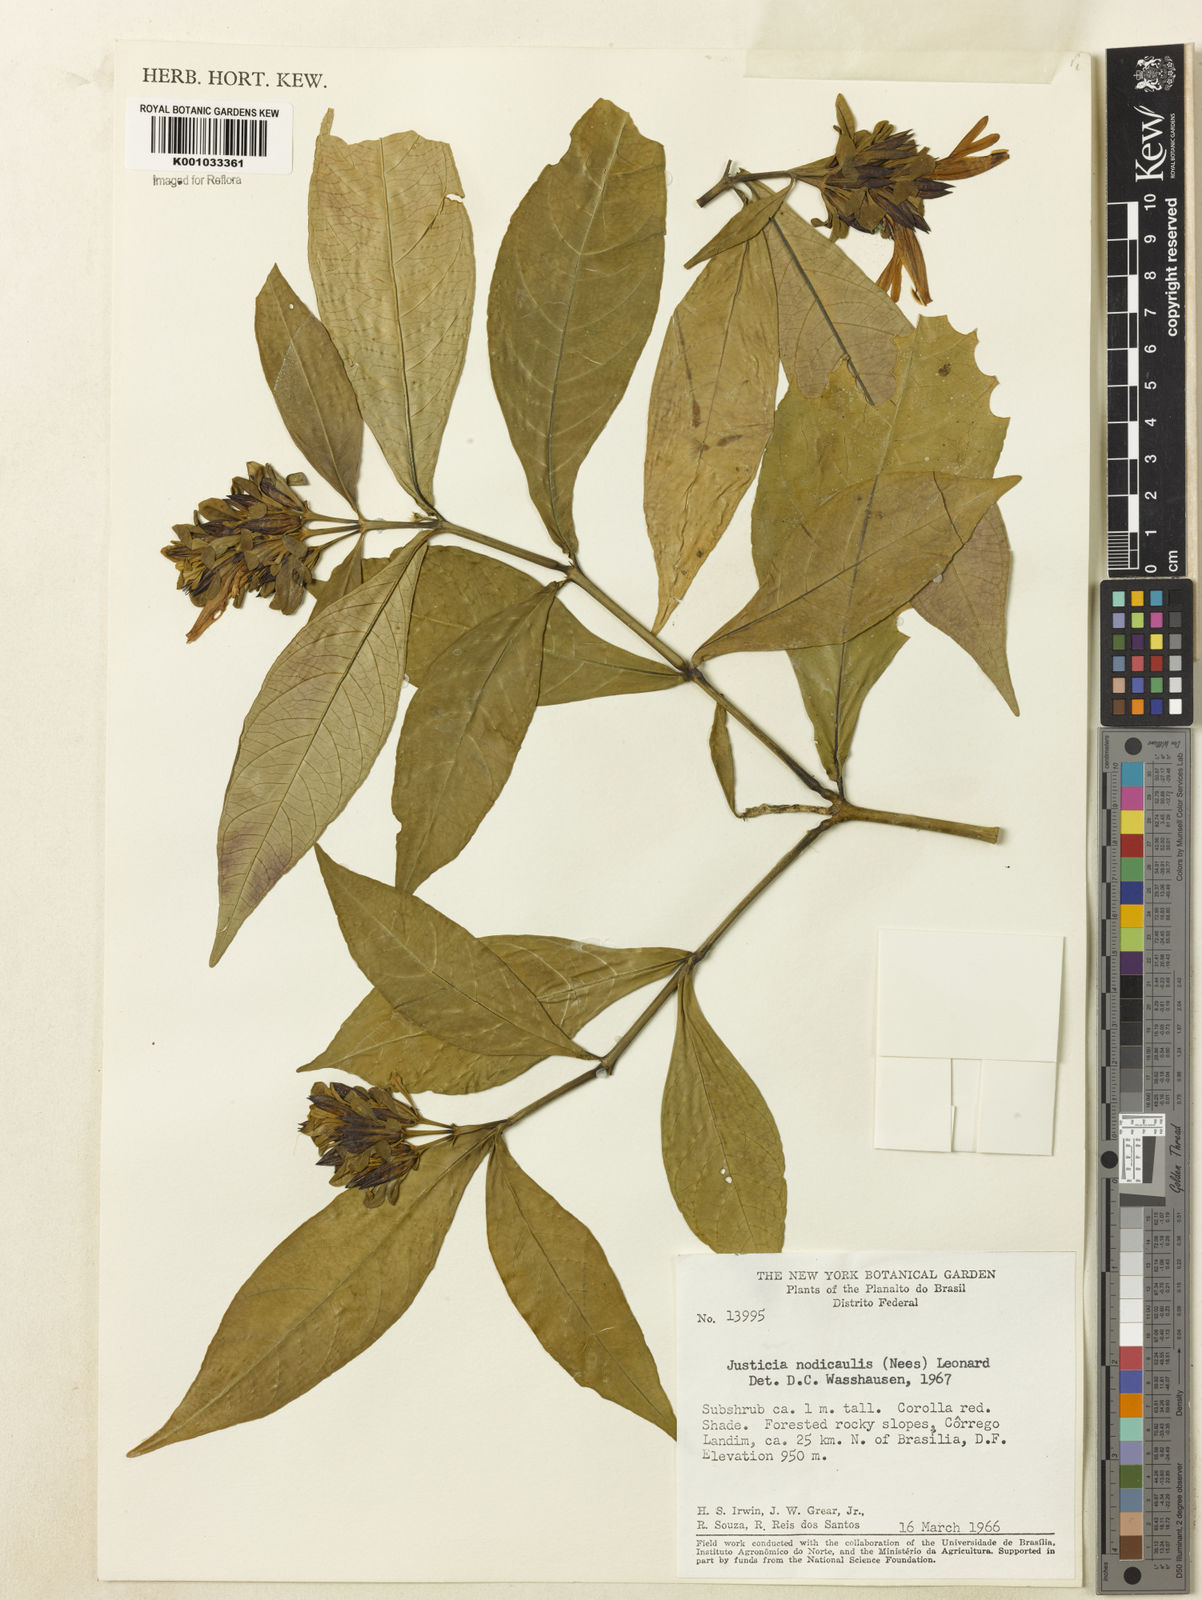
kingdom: Plantae
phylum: Tracheophyta
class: Magnoliopsida
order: Lamiales
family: Acanthaceae
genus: Justicia
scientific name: Justicia nodicaulis
